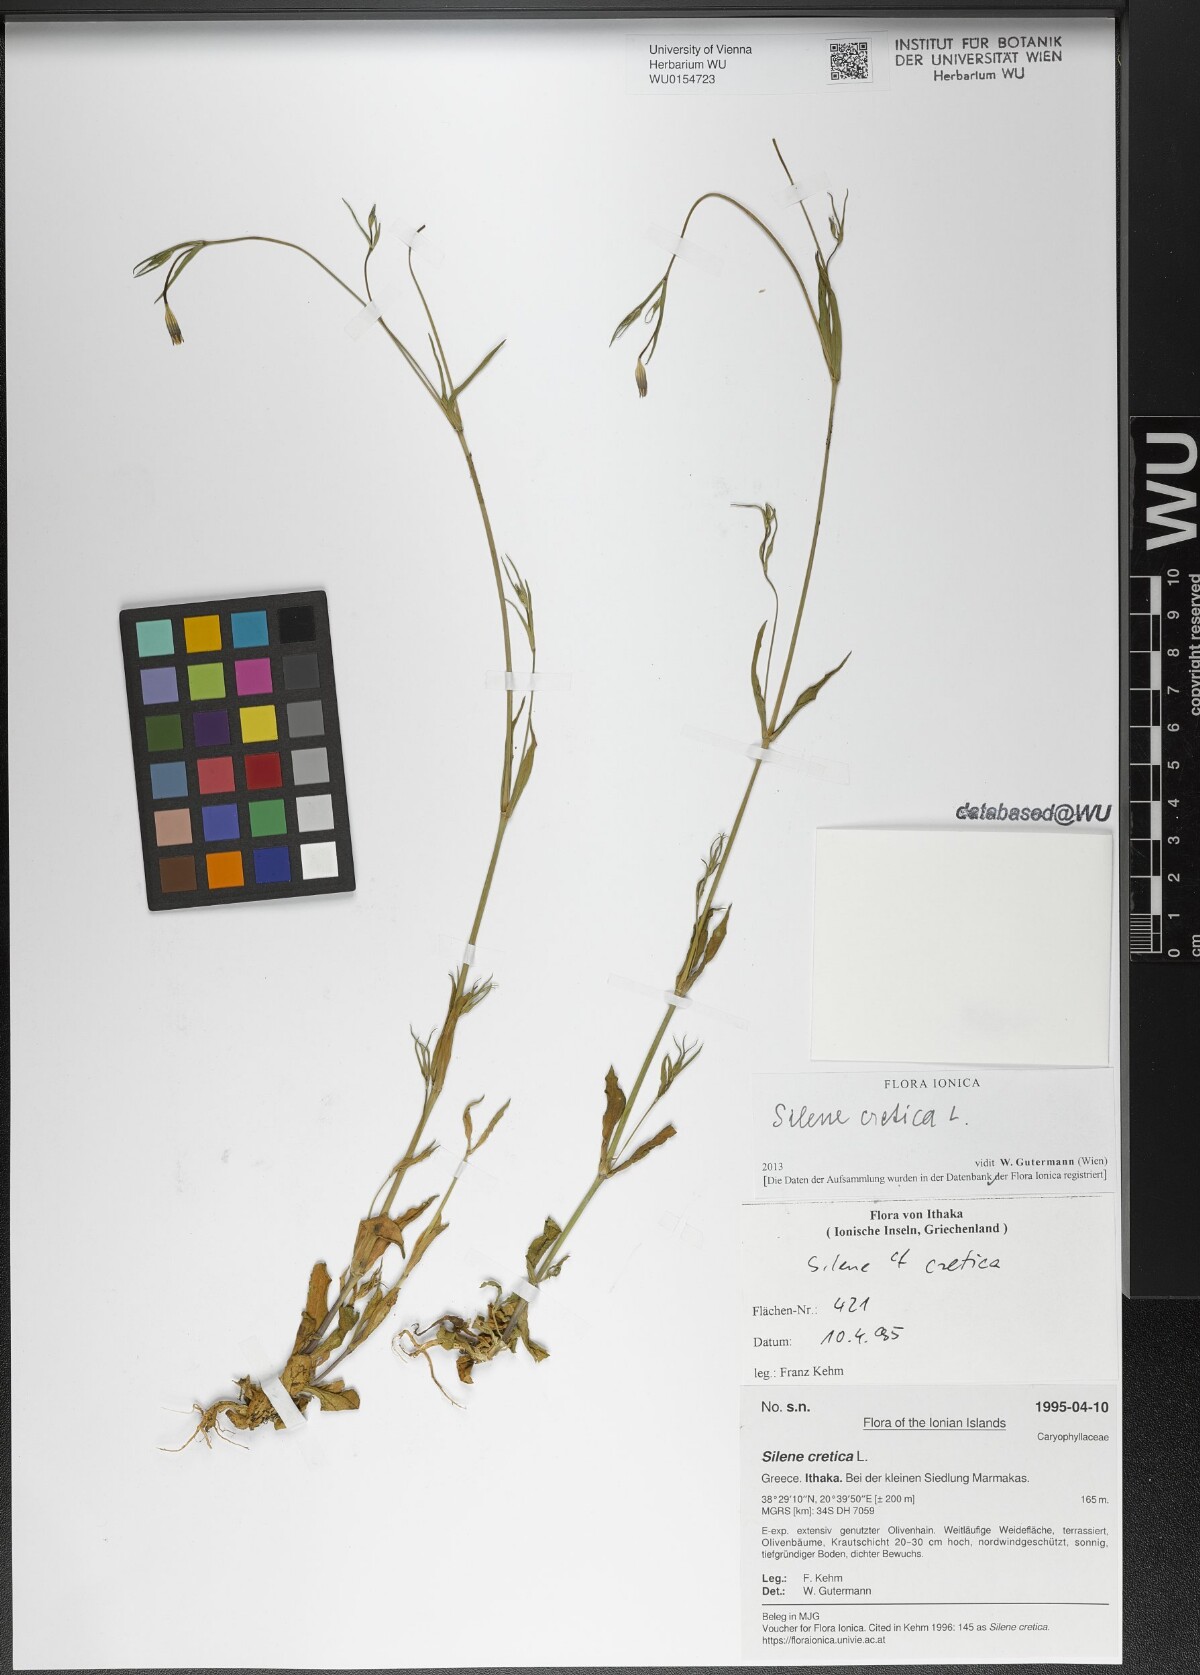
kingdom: Plantae
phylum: Tracheophyta
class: Magnoliopsida
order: Caryophyllales
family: Caryophyllaceae
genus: Silene
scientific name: Silene cretica
